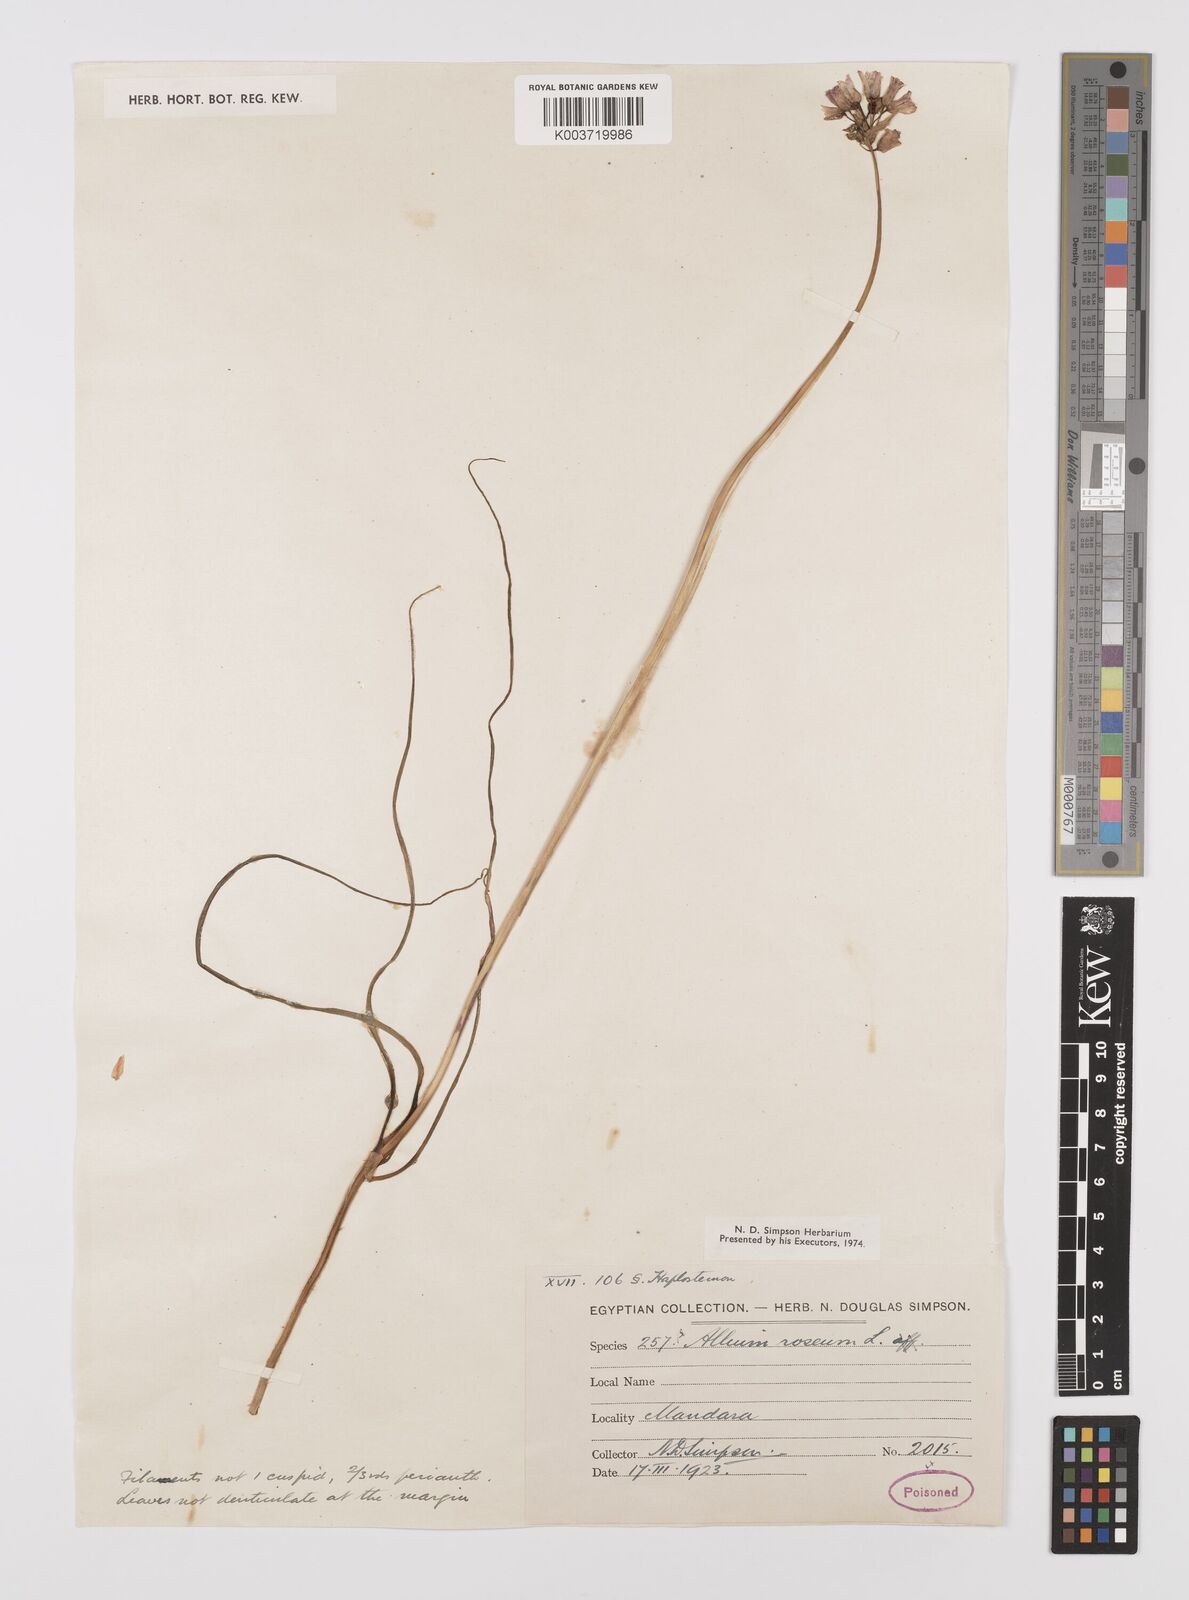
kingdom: Plantae
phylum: Tracheophyta
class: Liliopsida
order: Asparagales
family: Amaryllidaceae
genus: Allium
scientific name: Allium roseum
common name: Rosy garlic
